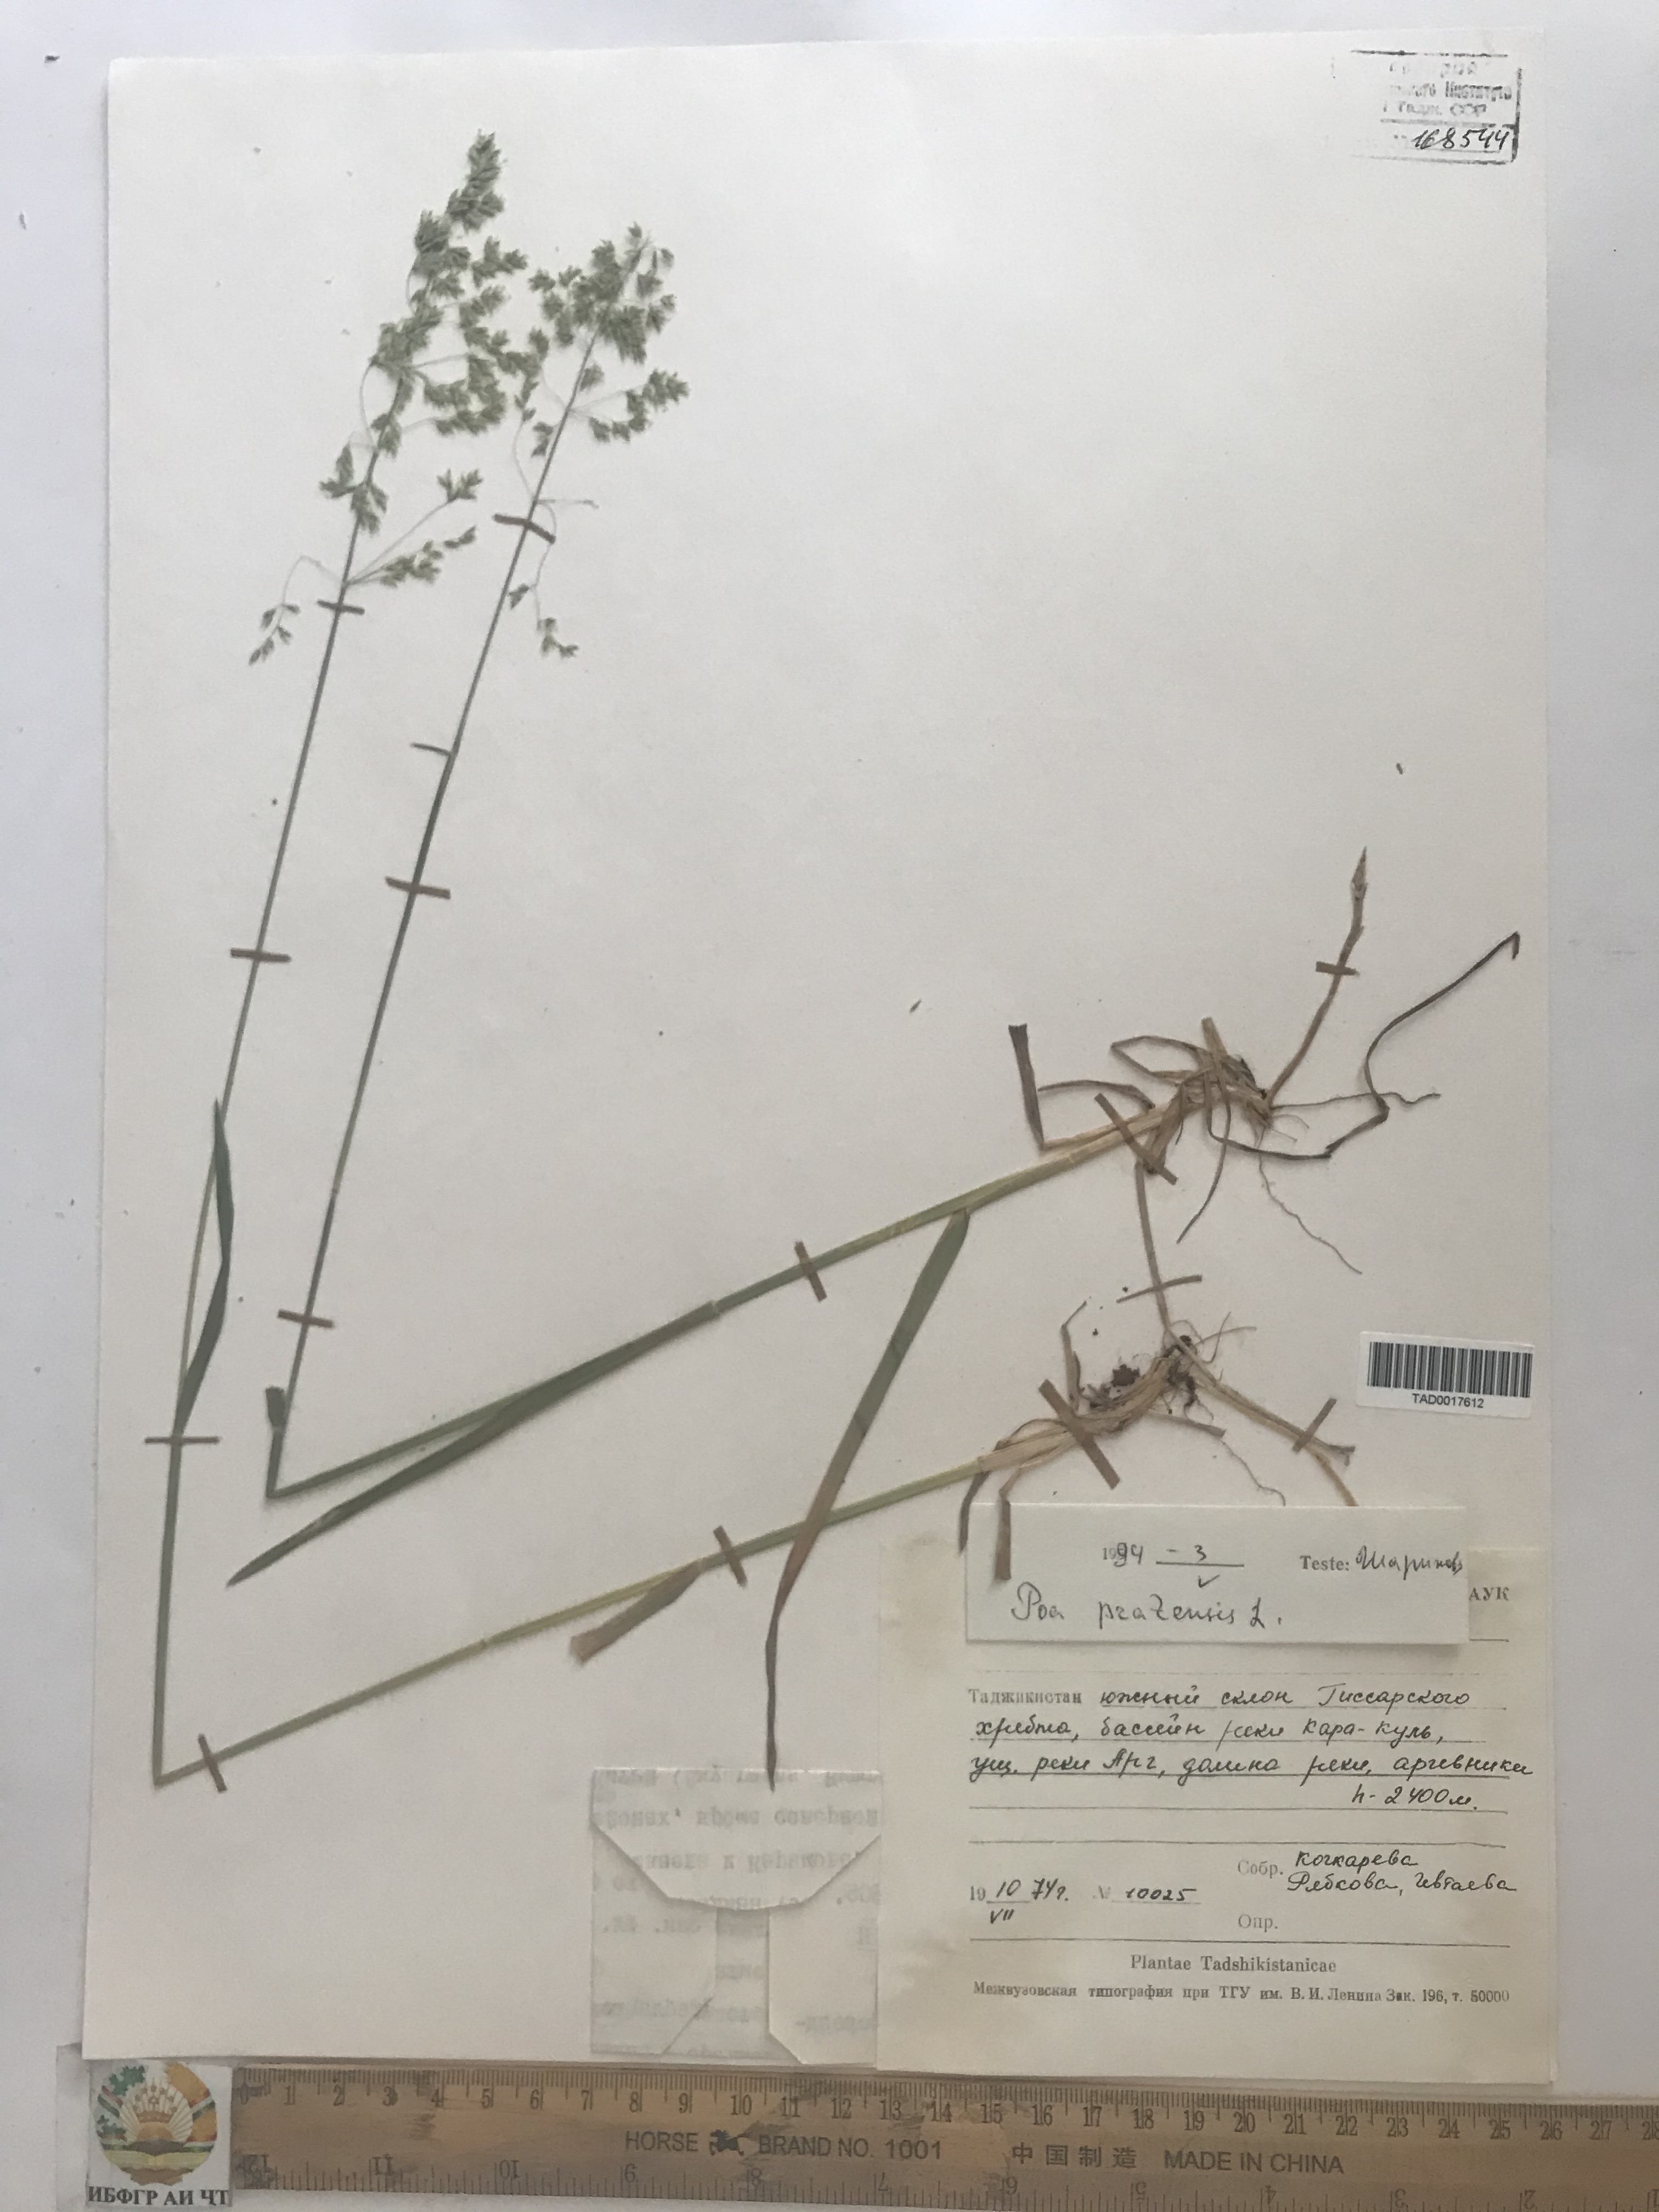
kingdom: Plantae
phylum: Tracheophyta
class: Liliopsida
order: Poales
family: Poaceae
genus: Poa
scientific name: Poa pratensis
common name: Kentucky bluegrass
